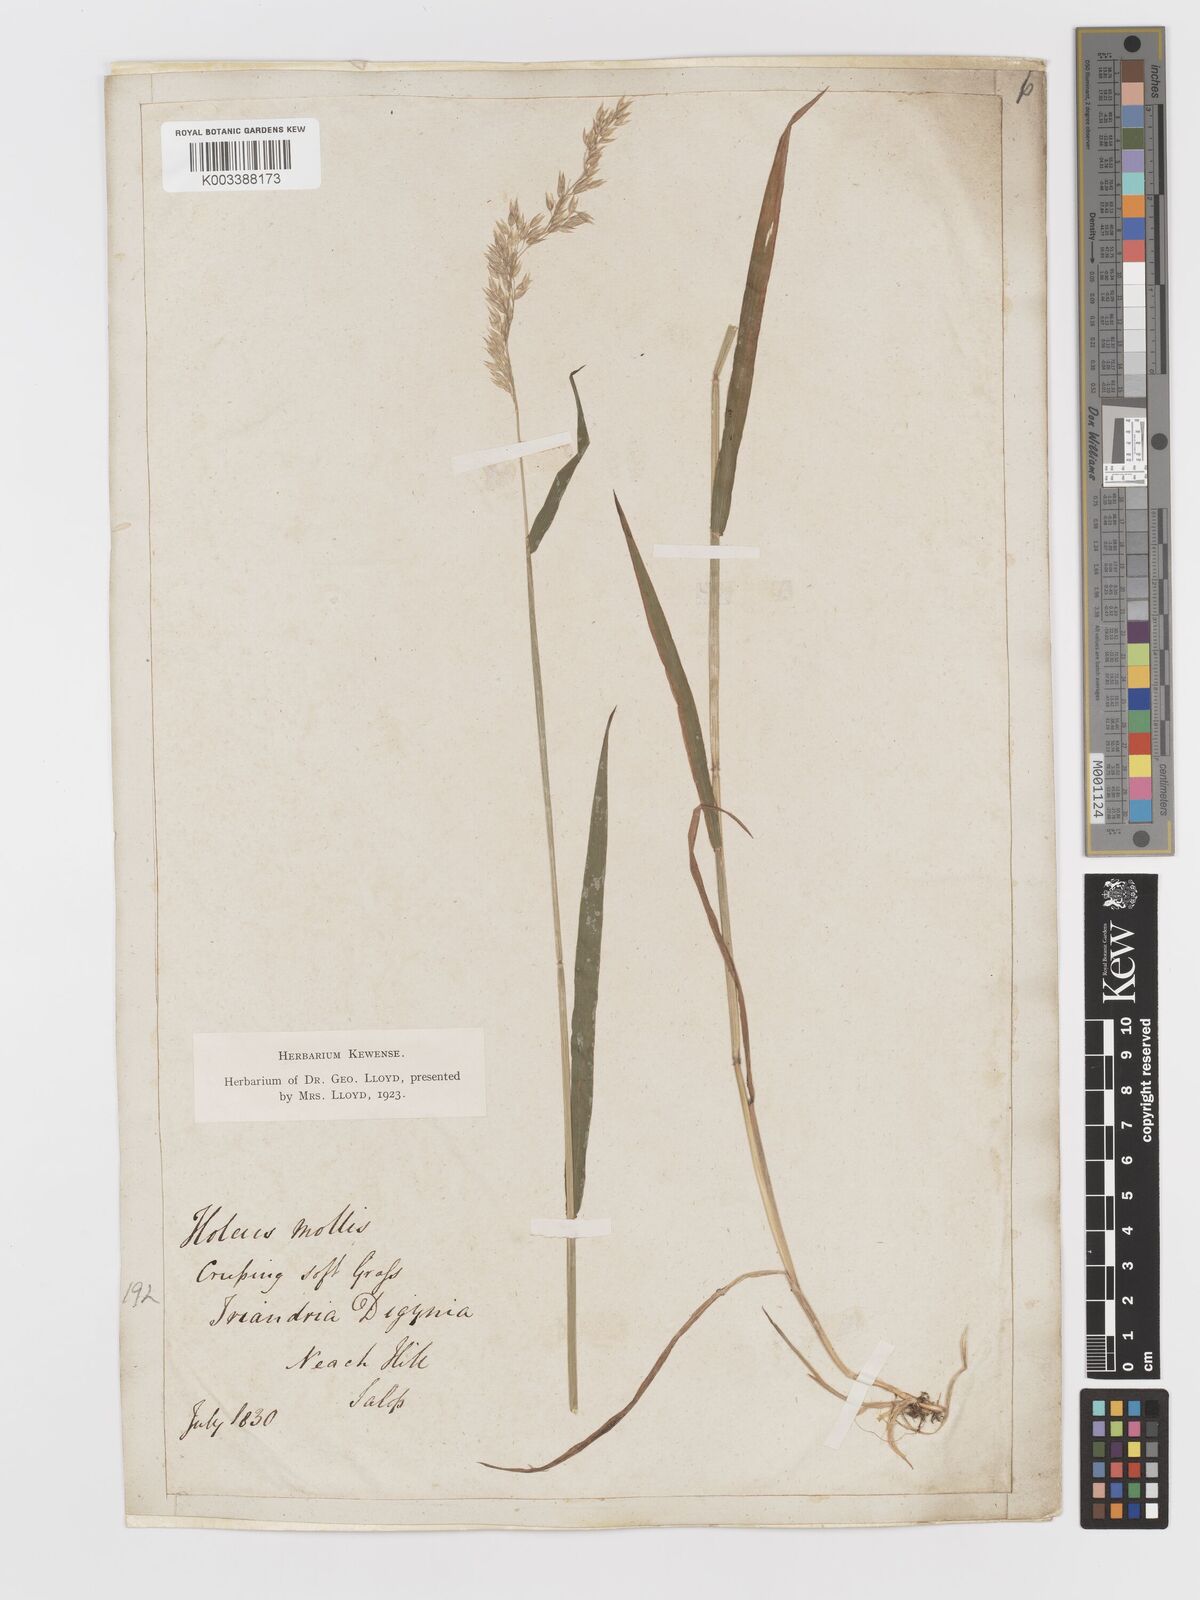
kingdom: Plantae
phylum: Tracheophyta
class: Liliopsida
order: Poales
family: Poaceae
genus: Holcus
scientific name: Holcus mollis
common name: Creeping velvetgrass
